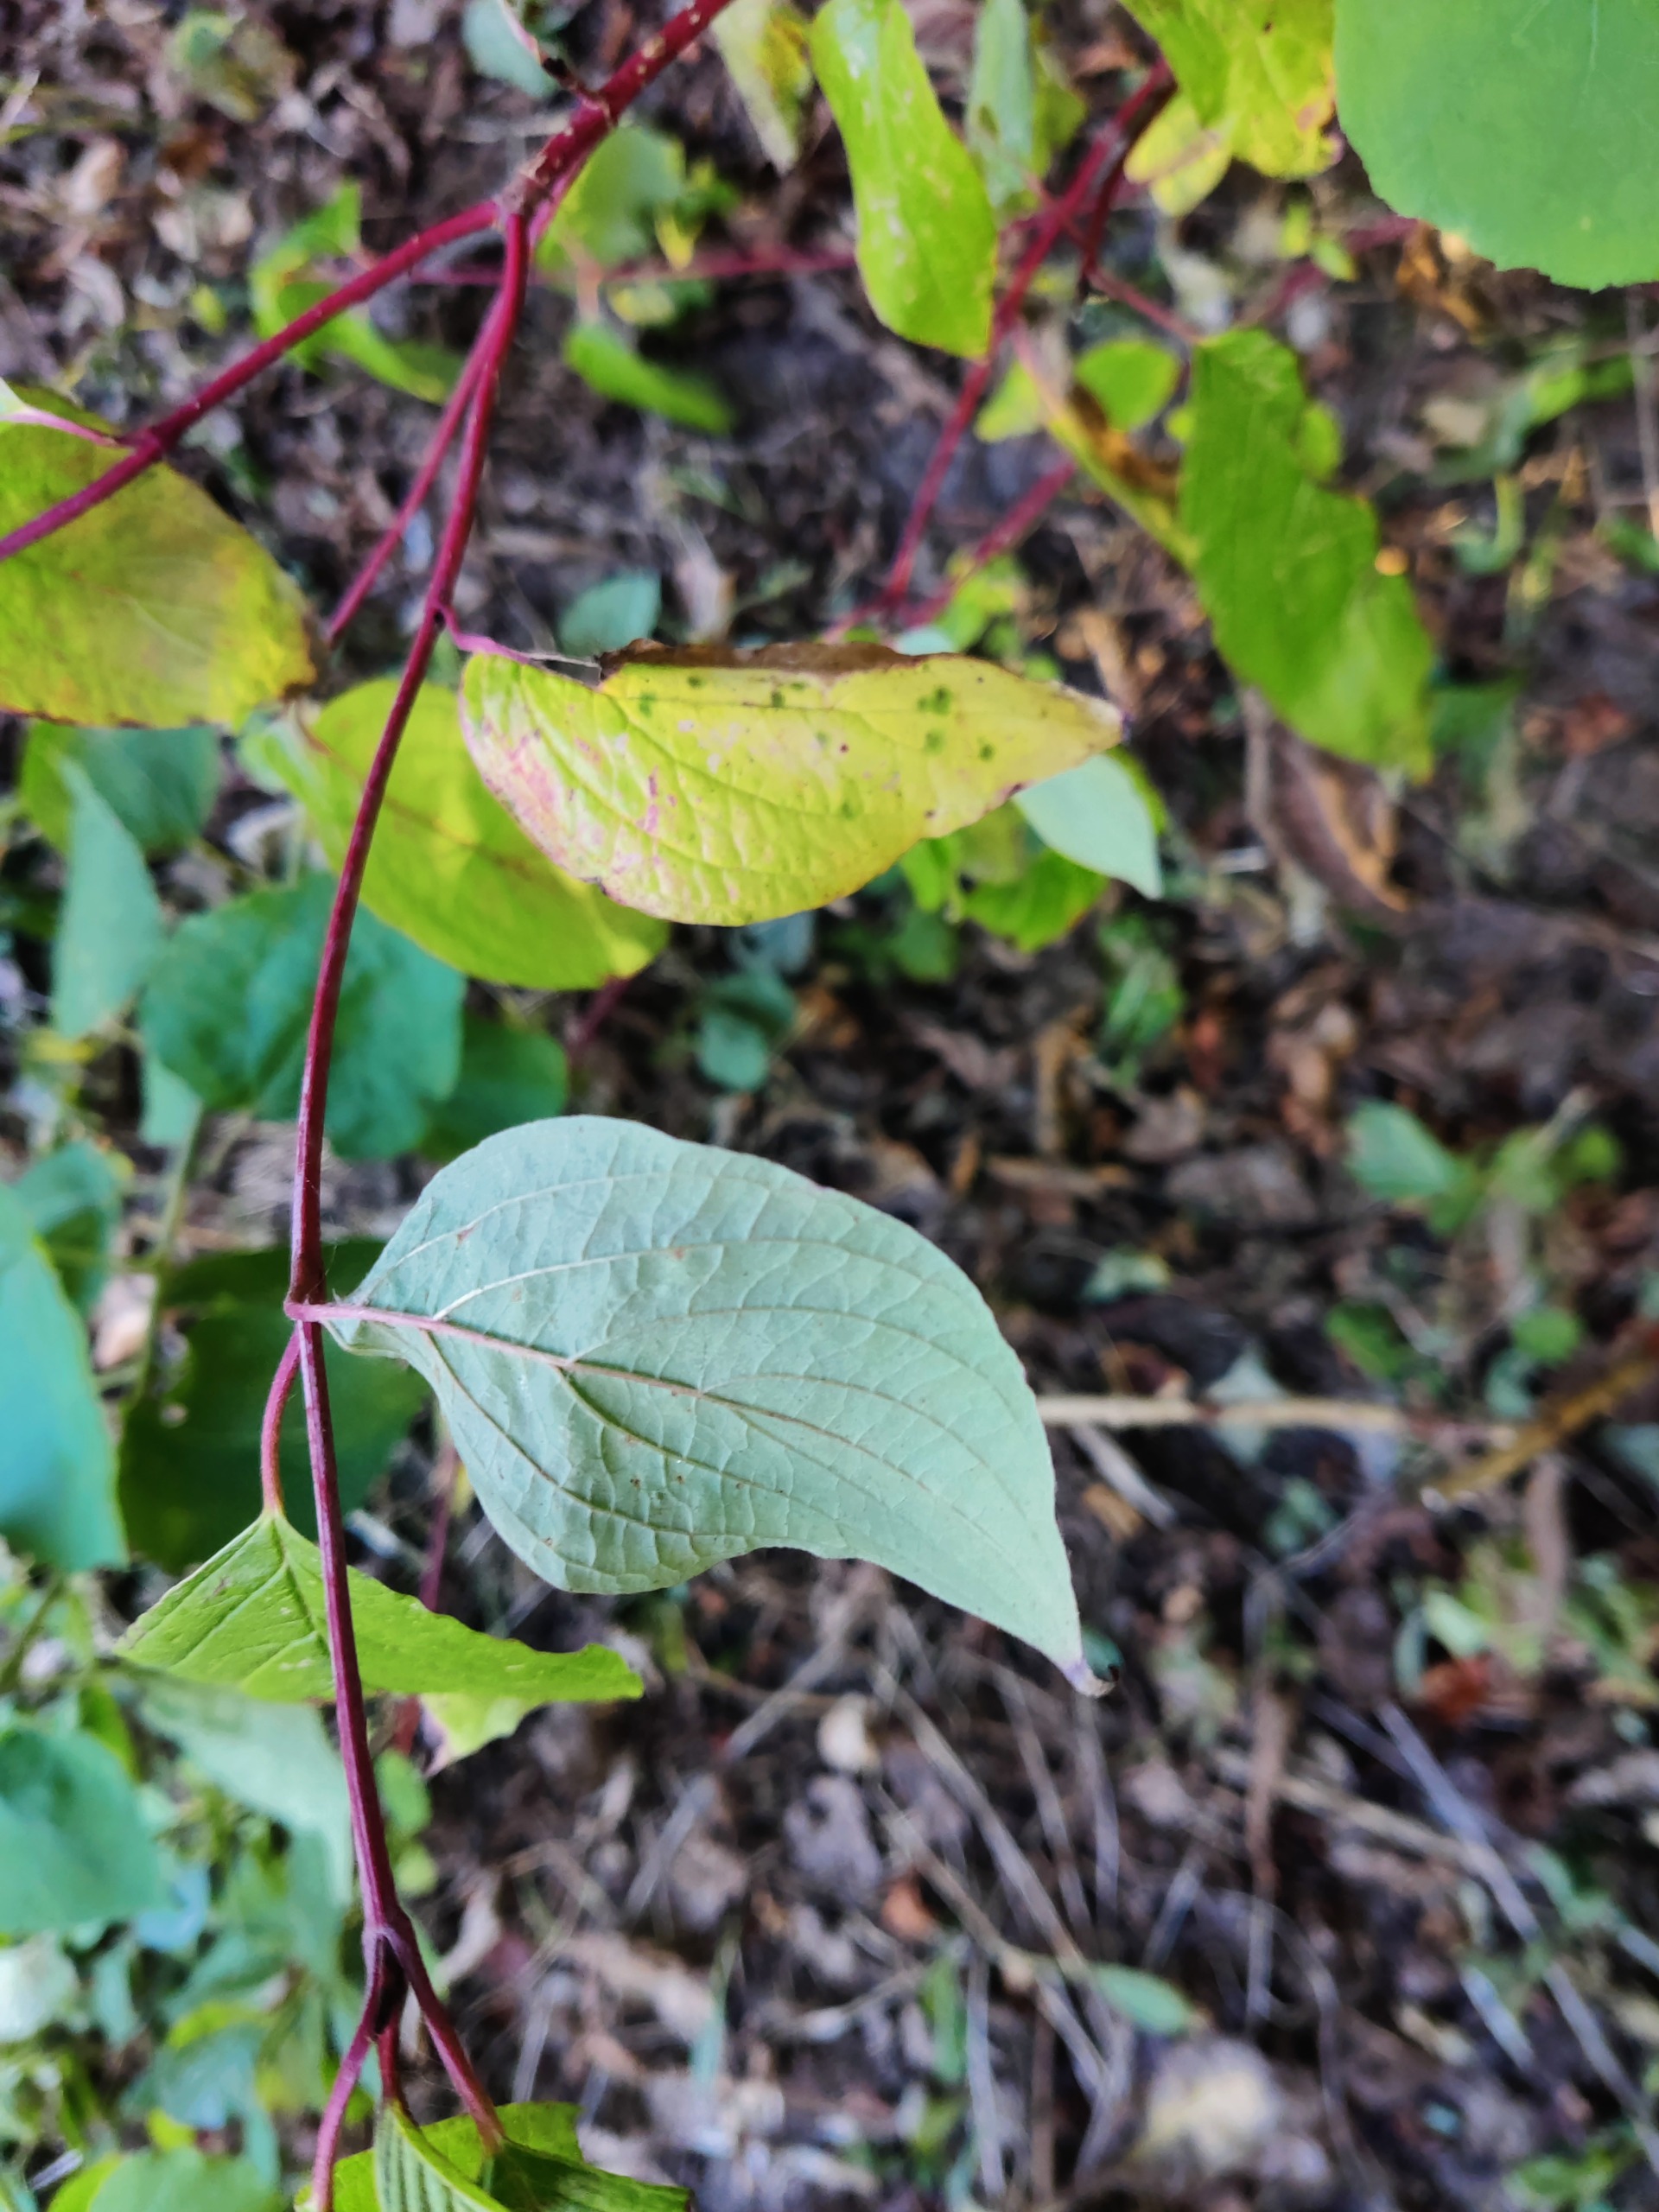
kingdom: Plantae
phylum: Tracheophyta
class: Magnoliopsida
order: Cornales
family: Cornaceae
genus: Cornus
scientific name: Cornus sanguinea
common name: Rød kornel
